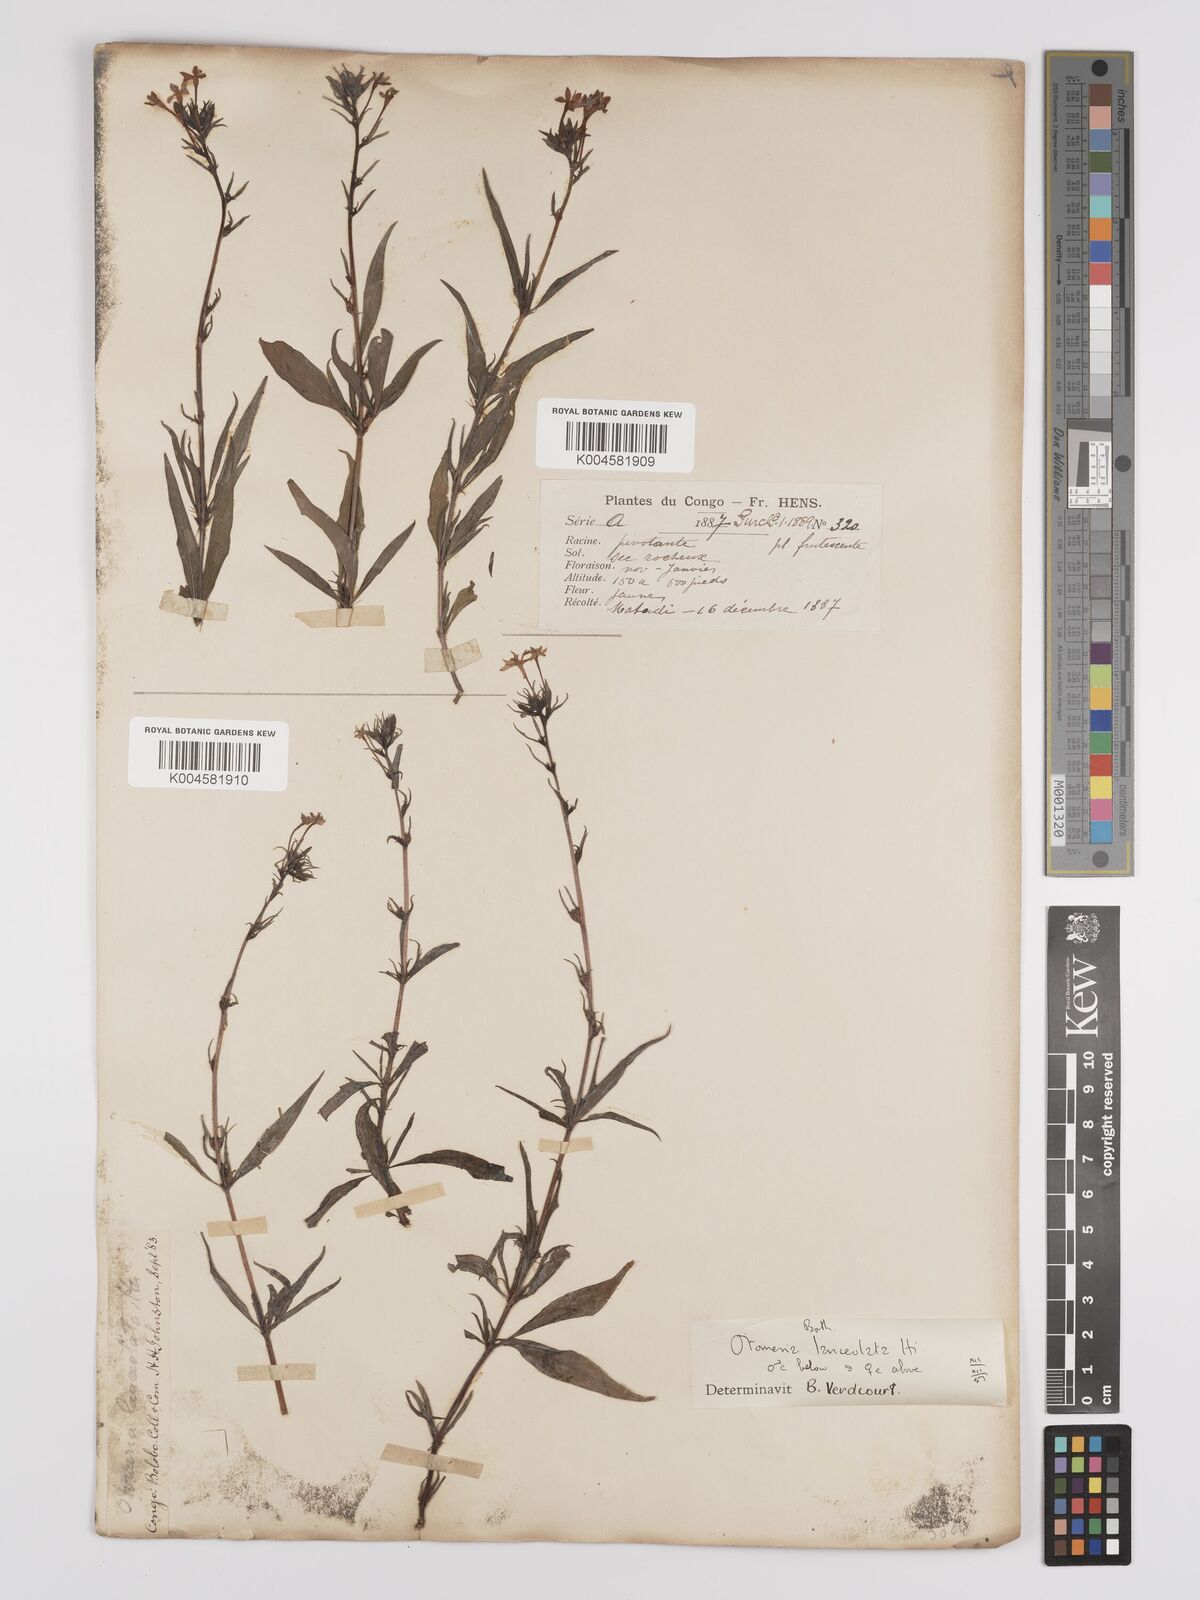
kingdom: Plantae
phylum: Tracheophyta
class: Magnoliopsida
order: Gentianales
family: Rubiaceae
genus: Otomeria
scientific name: Otomeria lanceolata
